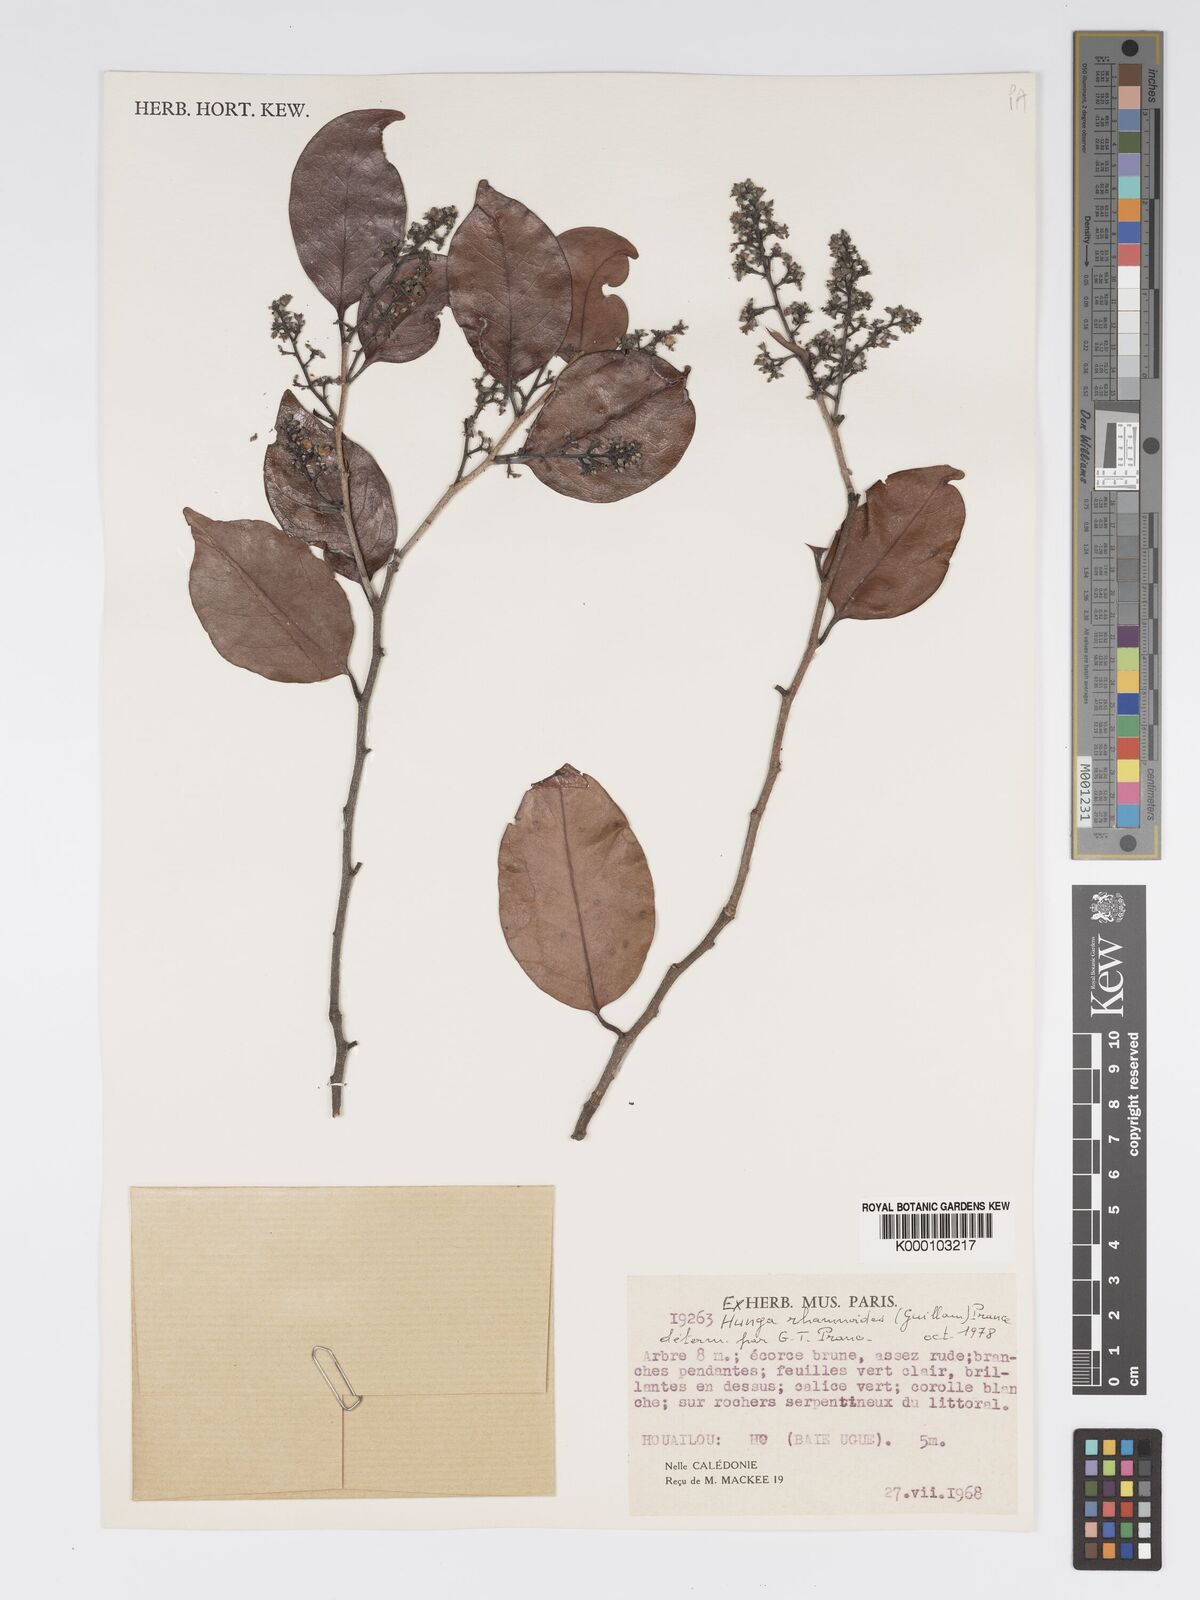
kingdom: Plantae
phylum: Tracheophyta
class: Magnoliopsida
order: Malpighiales
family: Chrysobalanaceae
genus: Hunga
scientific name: Hunga rhamnoides
